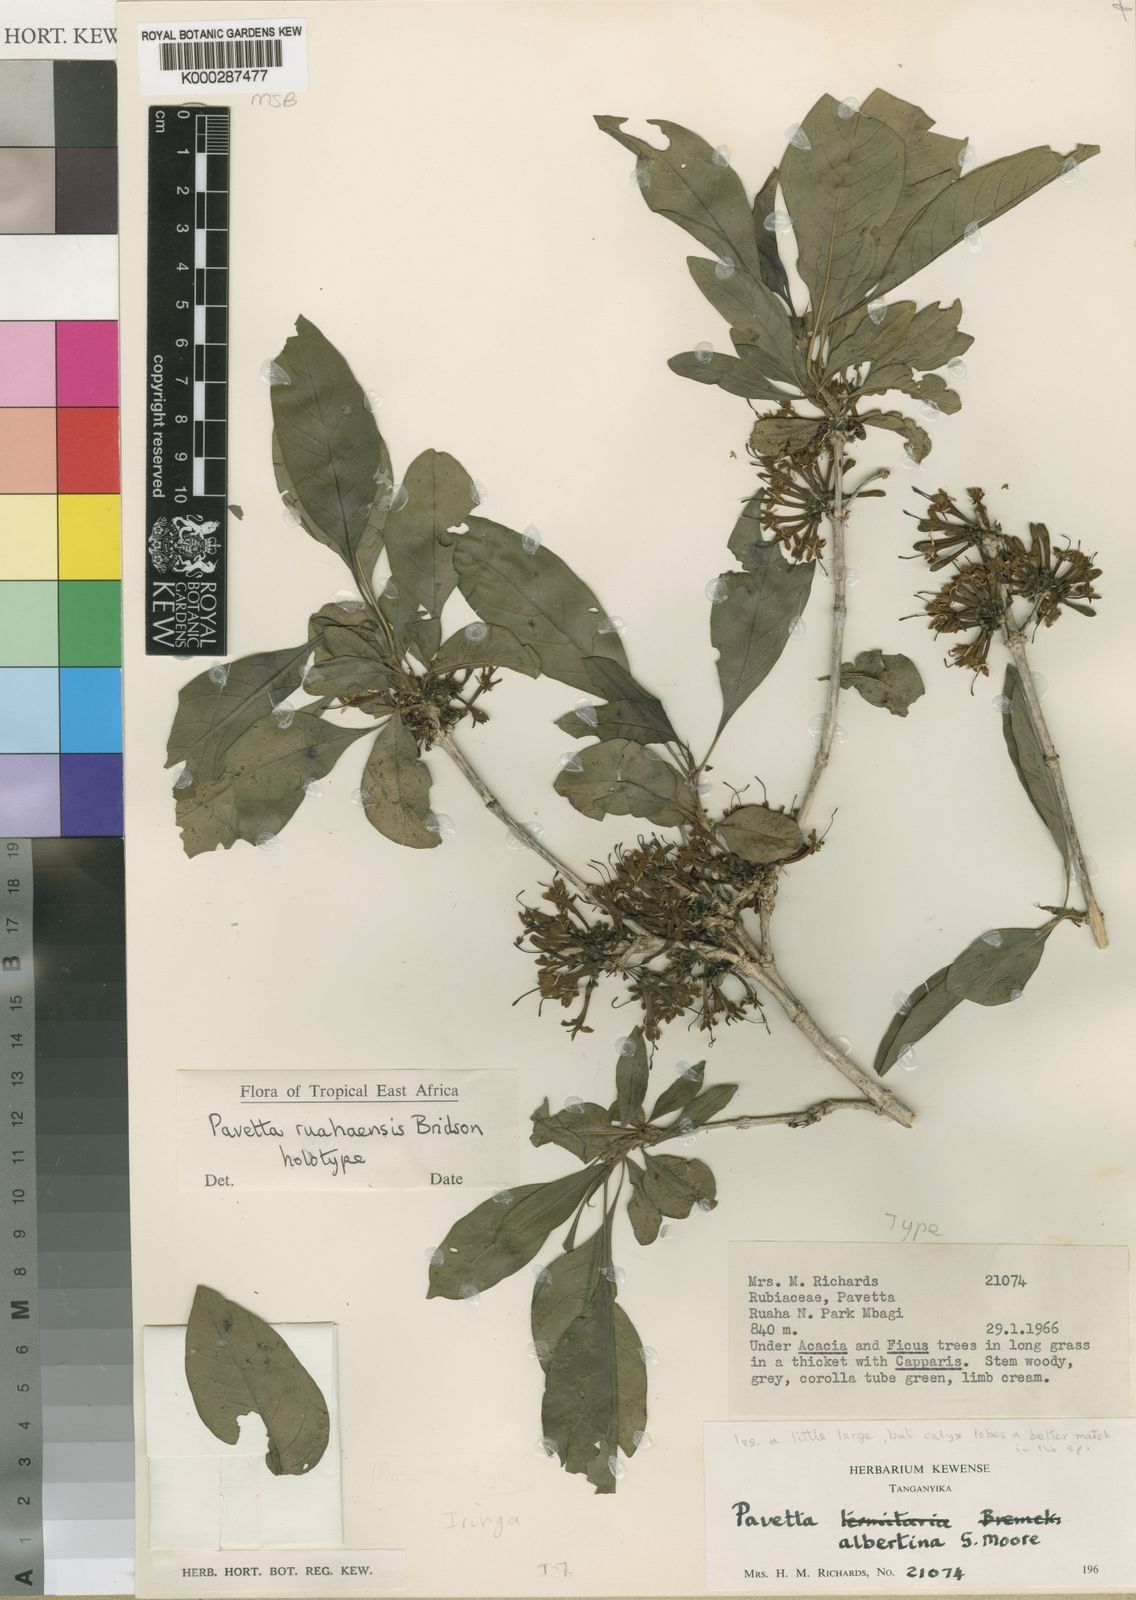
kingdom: Plantae
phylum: Tracheophyta
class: Magnoliopsida
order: Gentianales
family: Rubiaceae
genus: Pavetta
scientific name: Pavetta ruahaensis
